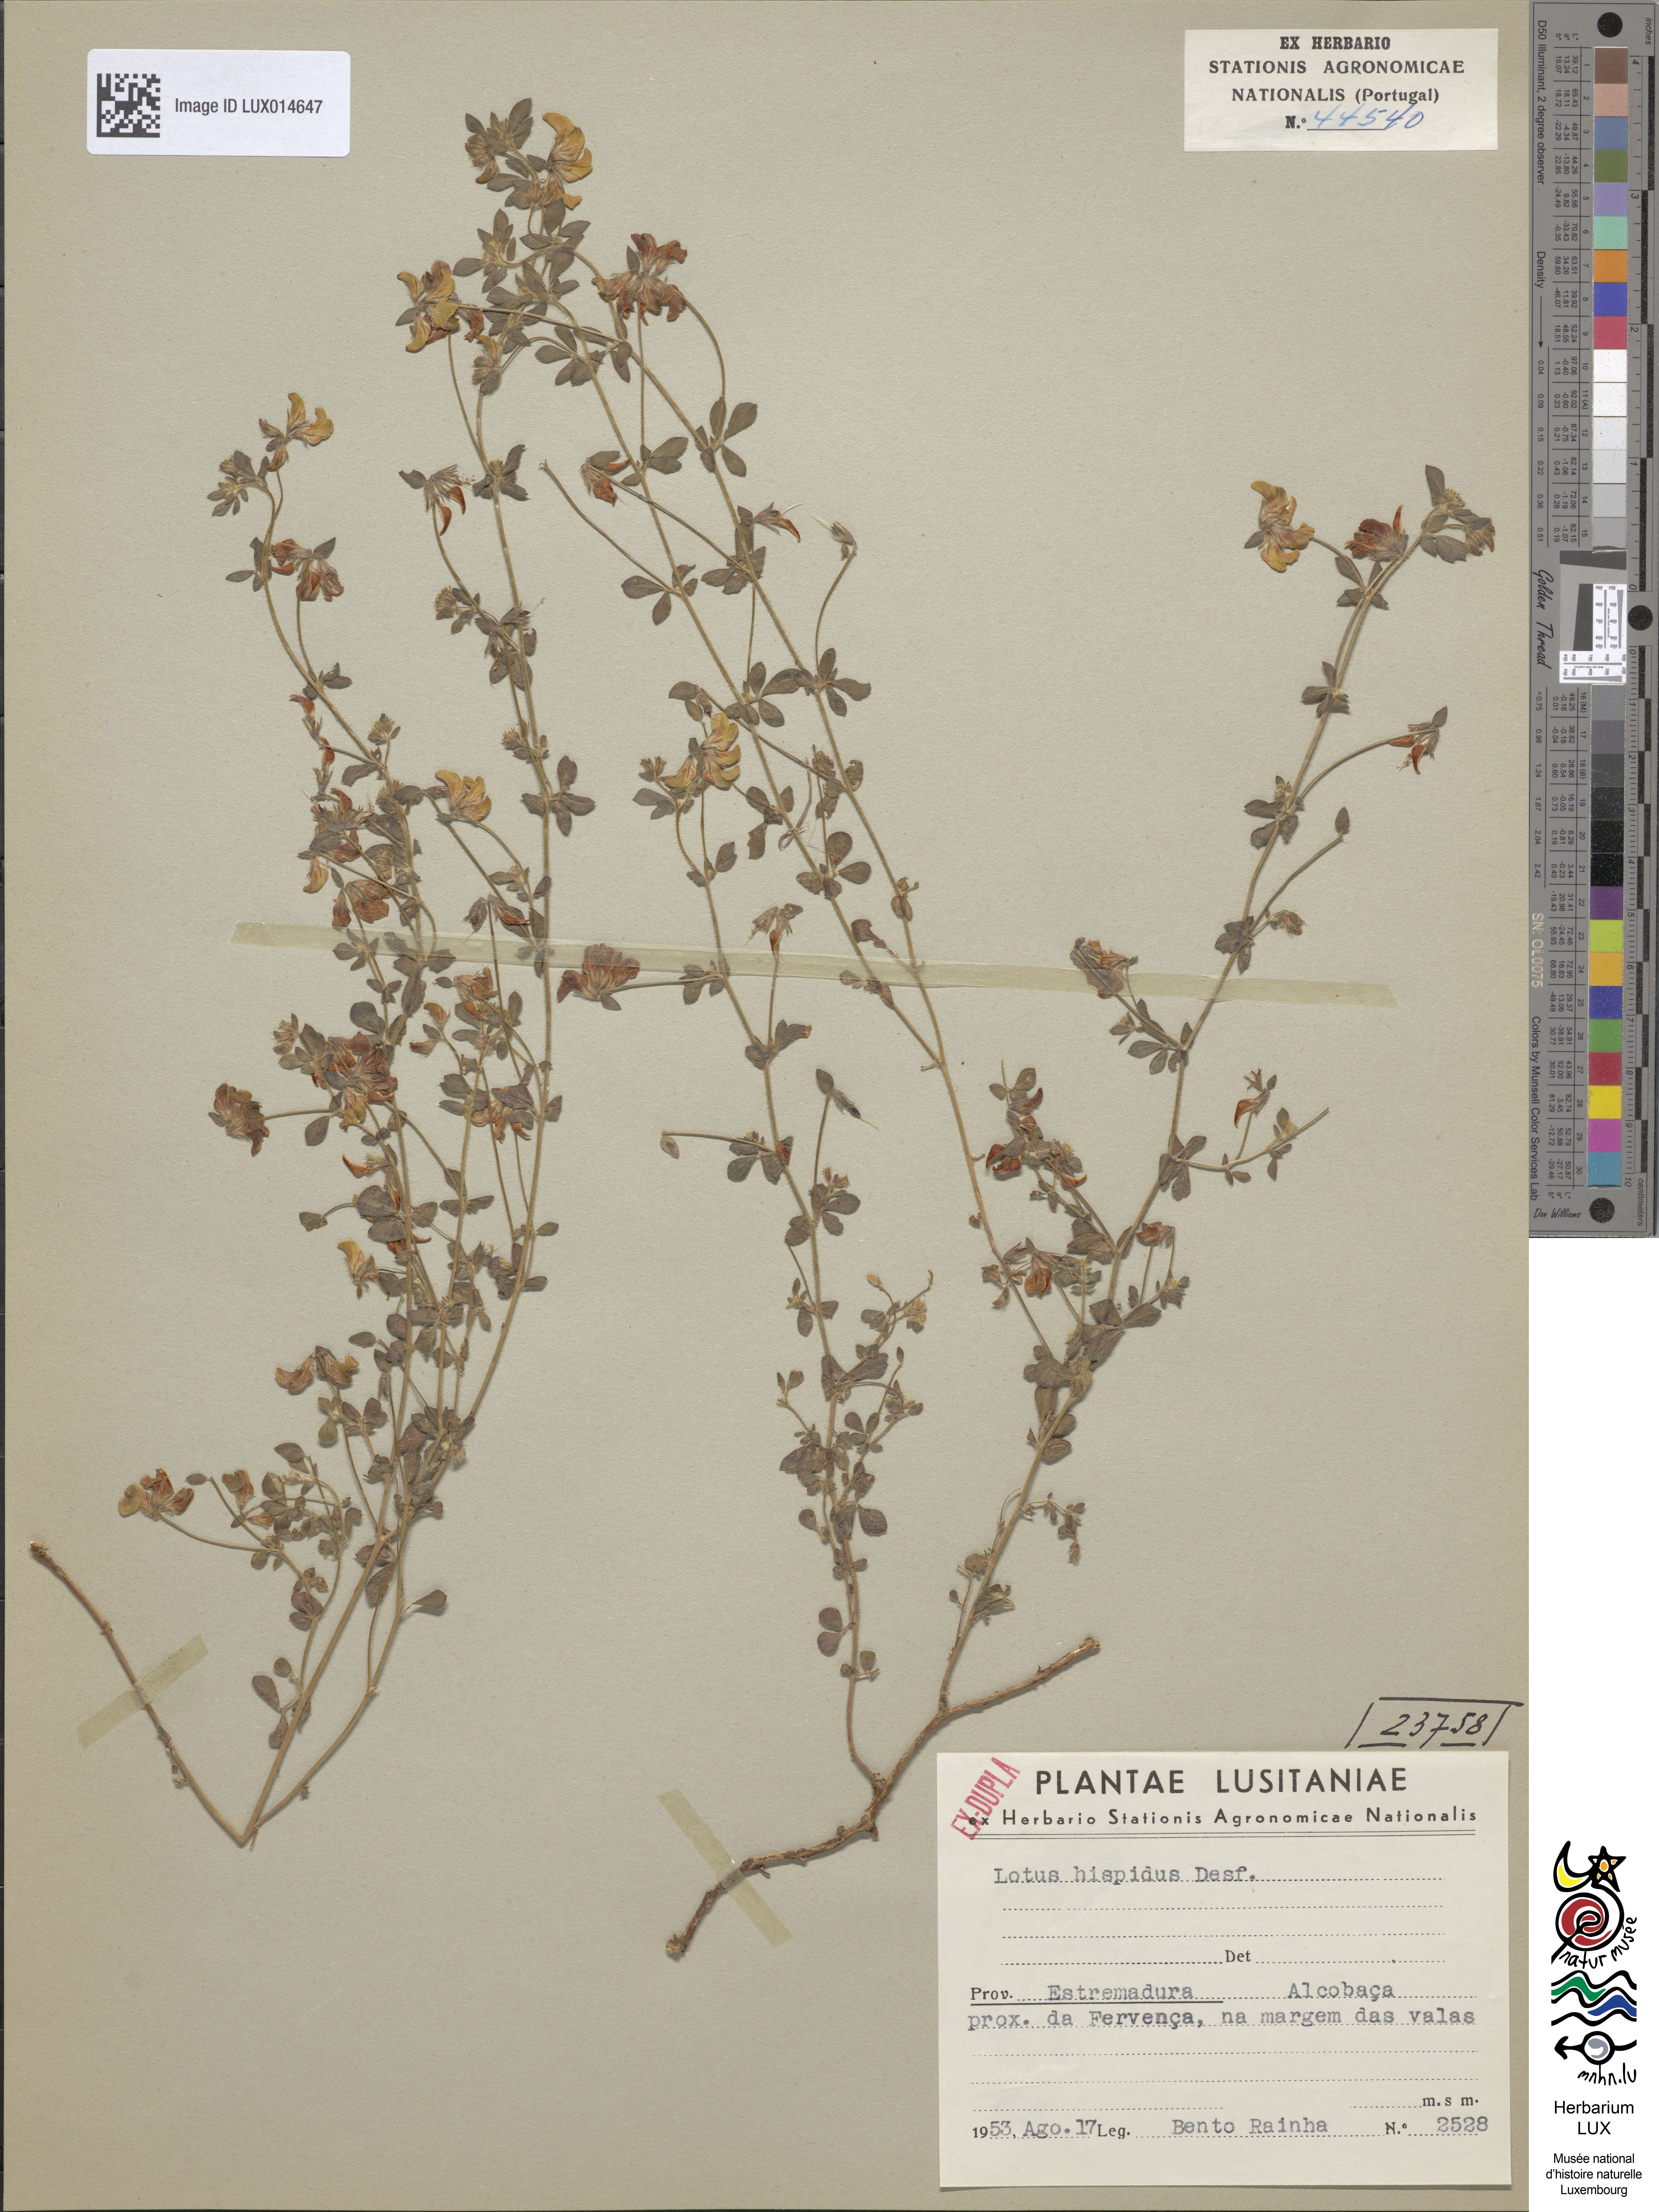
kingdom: Plantae
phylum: Tracheophyta
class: Magnoliopsida
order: Fabales
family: Fabaceae
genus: Lotus
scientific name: Lotus parviflorus
